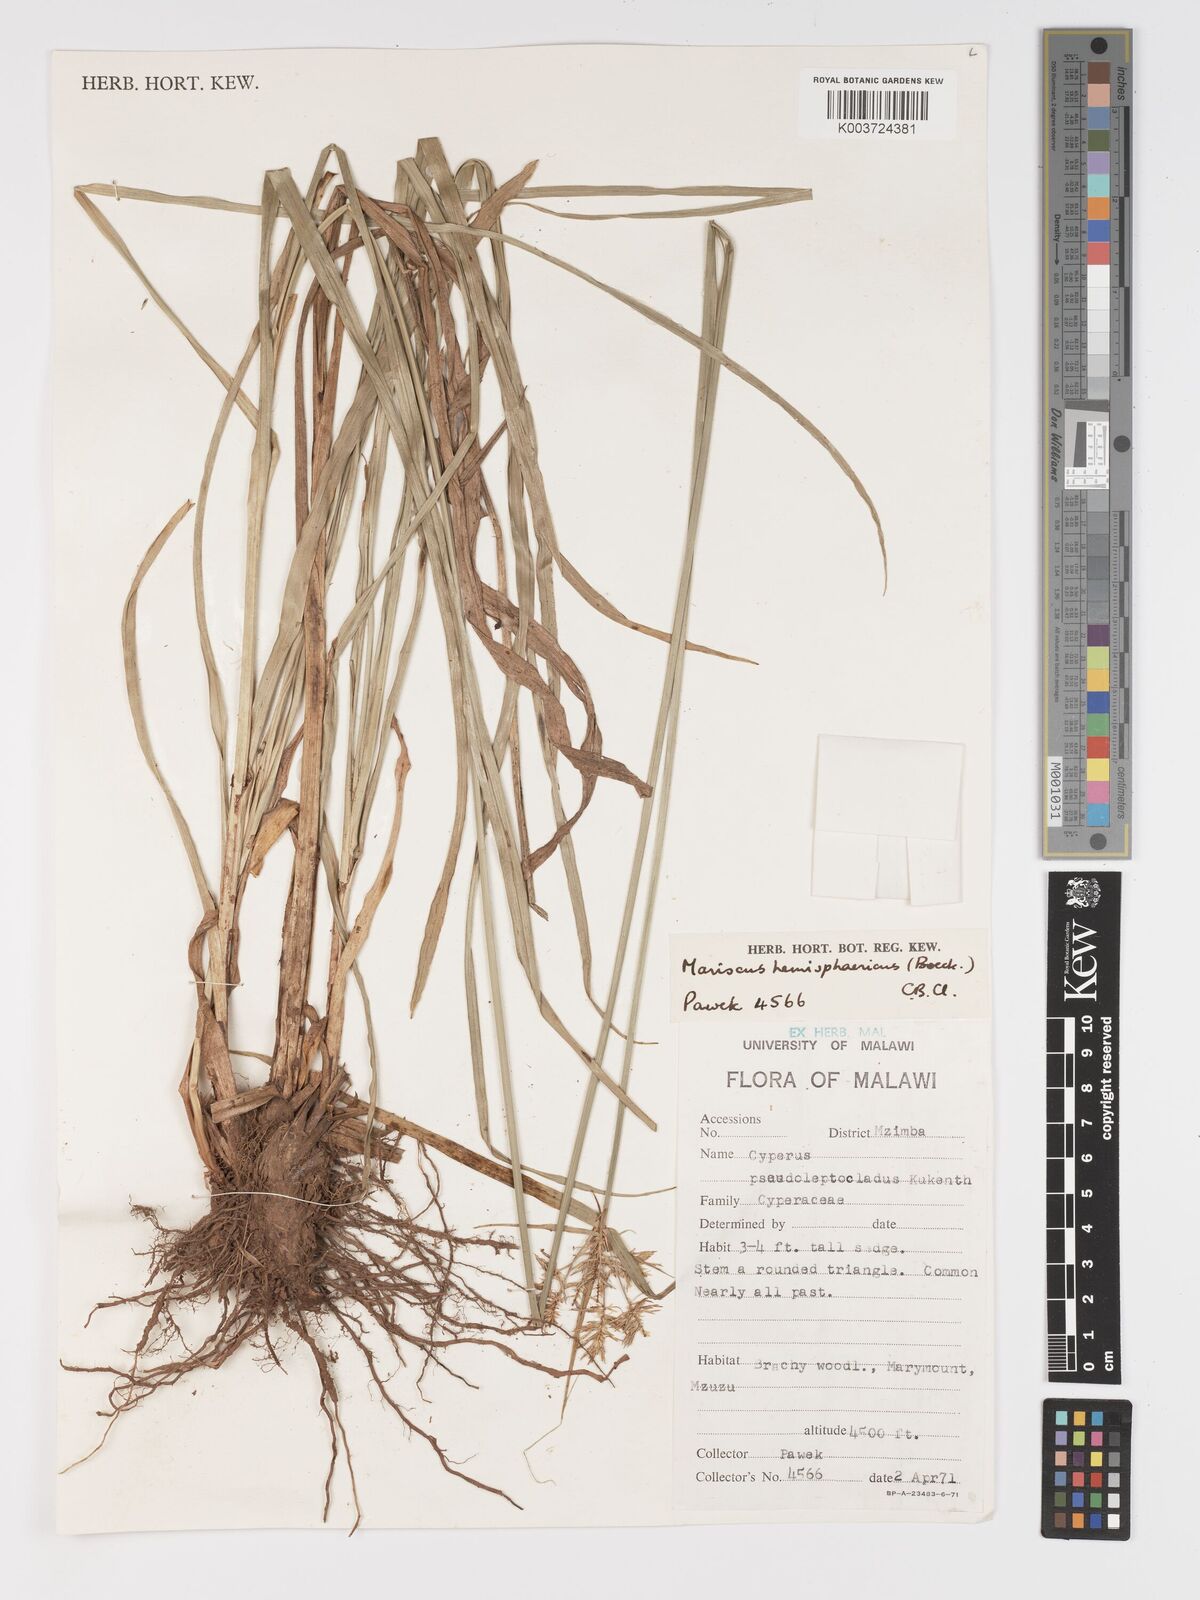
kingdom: Plantae
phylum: Tracheophyta
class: Liliopsida
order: Poales
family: Cyperaceae
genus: Cyperus
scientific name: Cyperus hemisphaericus
